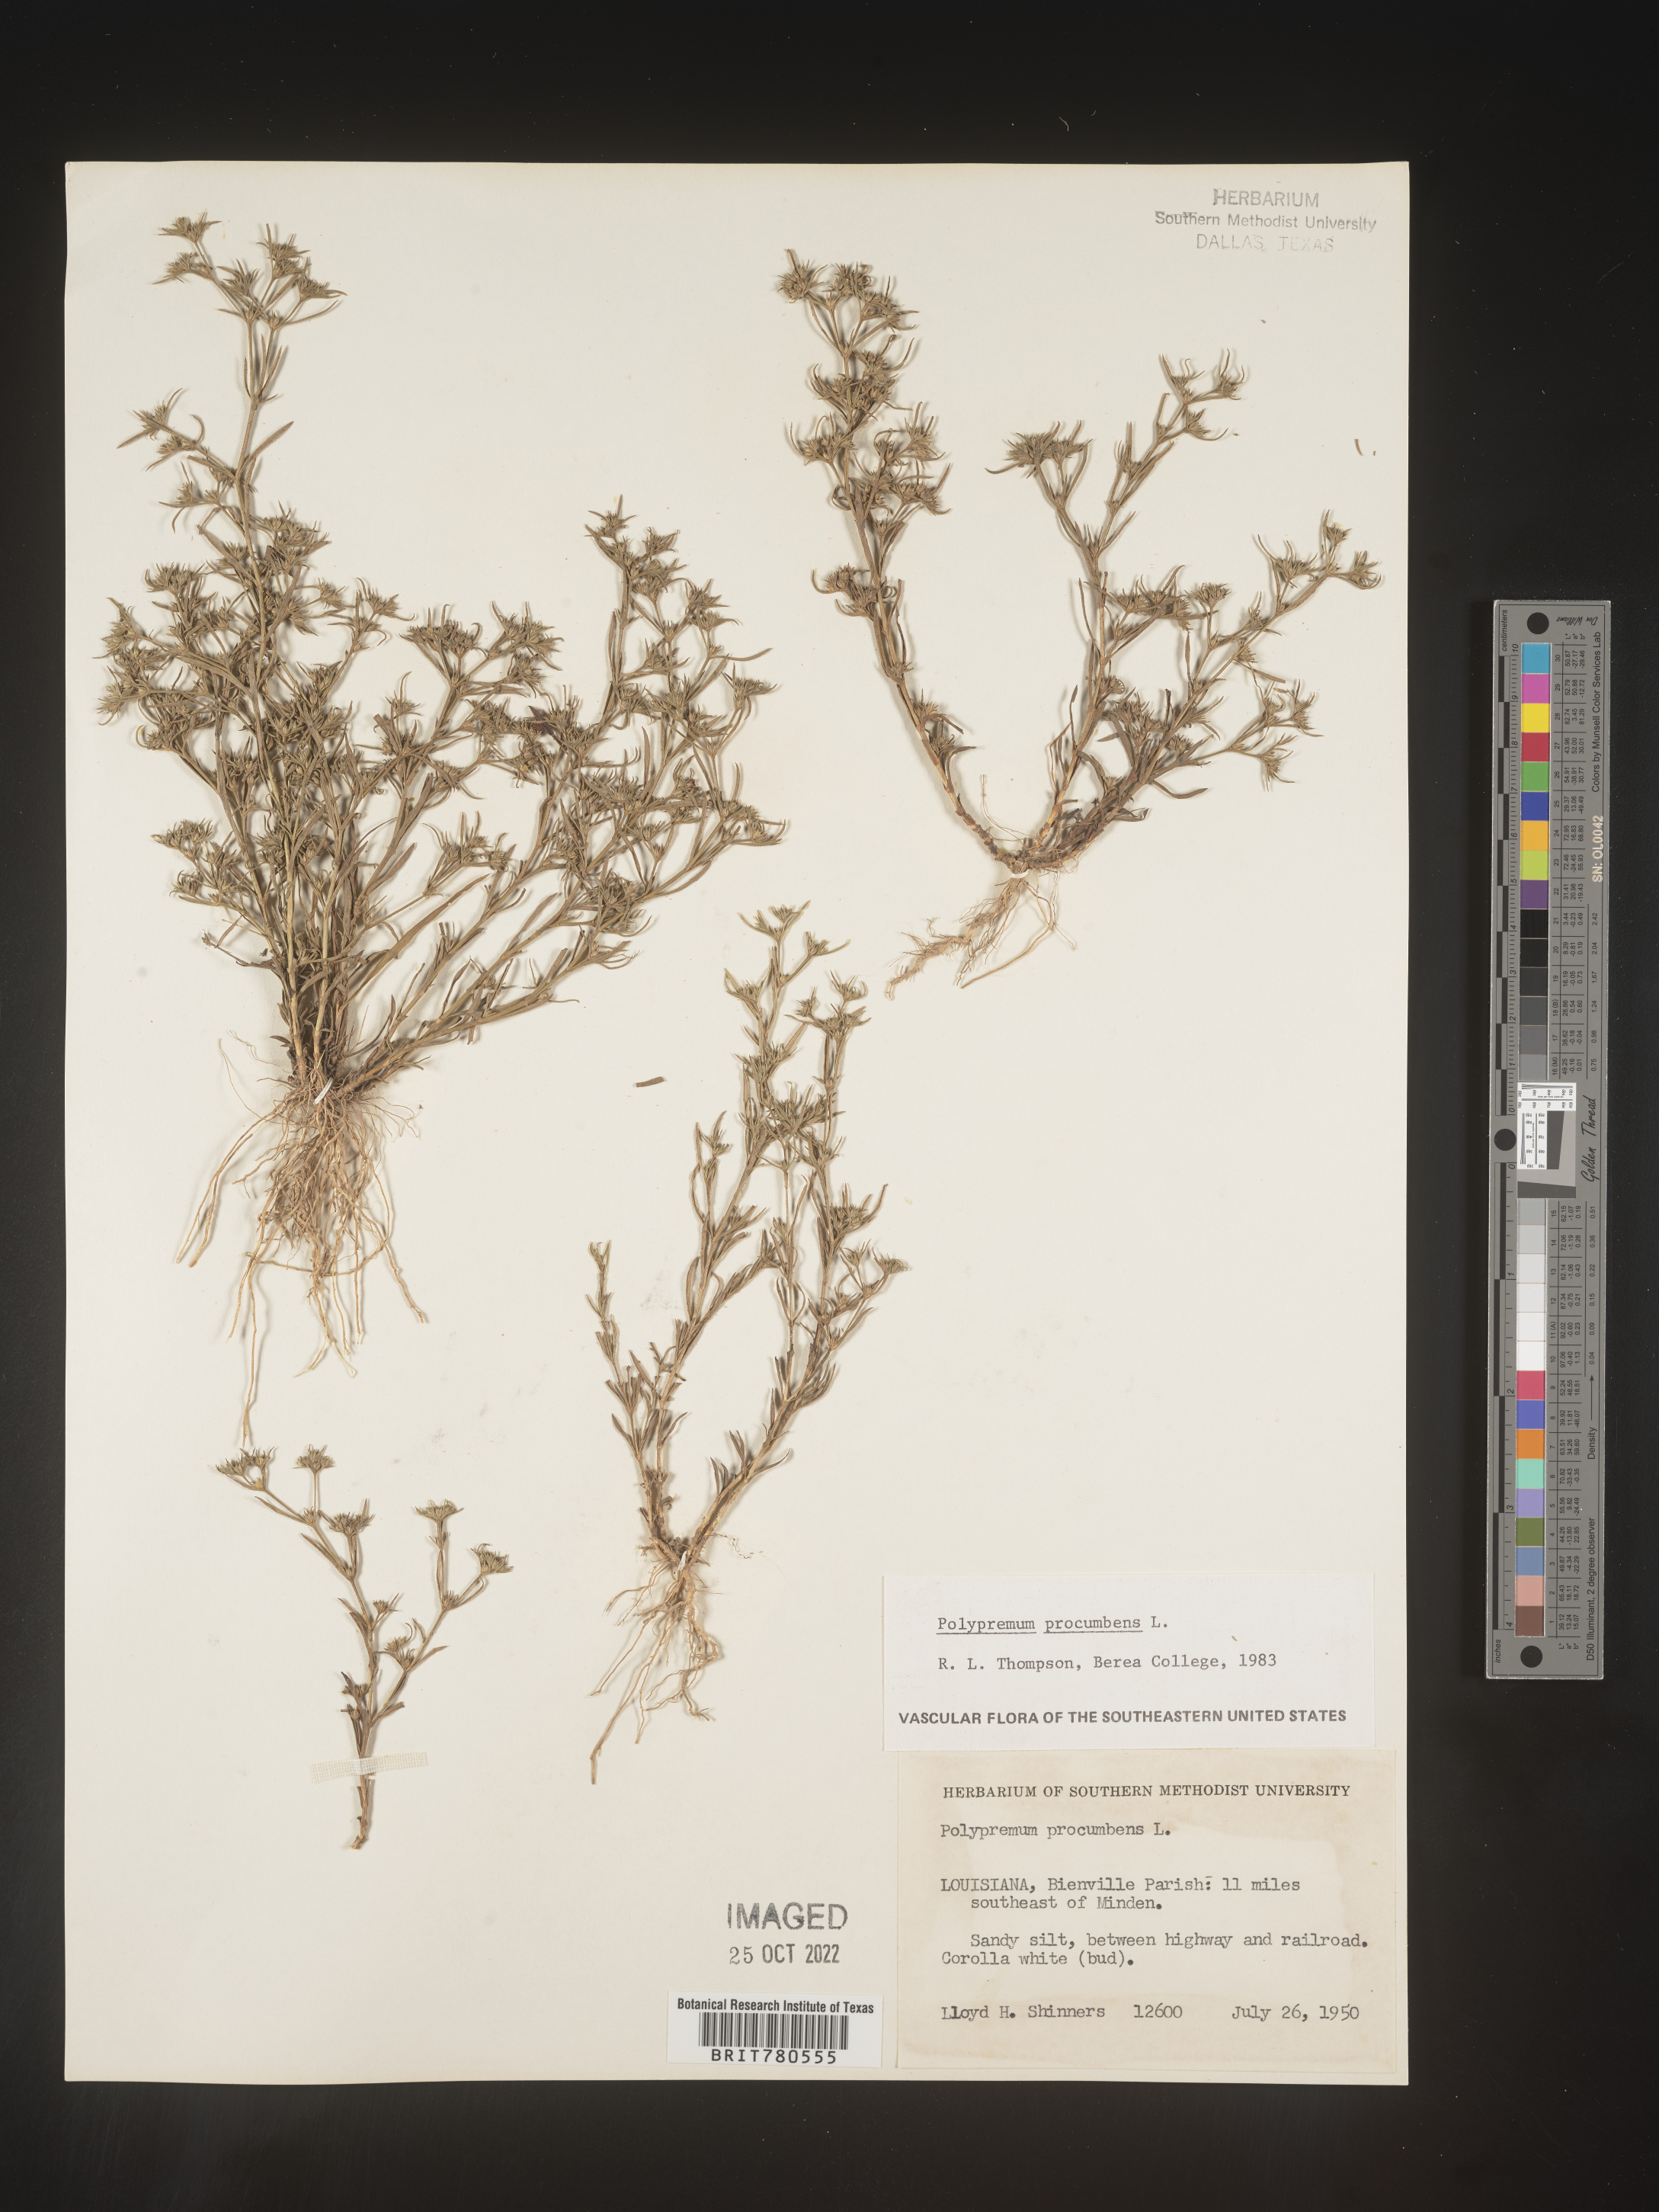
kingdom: Plantae
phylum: Tracheophyta
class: Magnoliopsida
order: Lamiales
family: Tetrachondraceae
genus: Polypremum
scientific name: Polypremum procumbens
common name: Juniper-leaf
